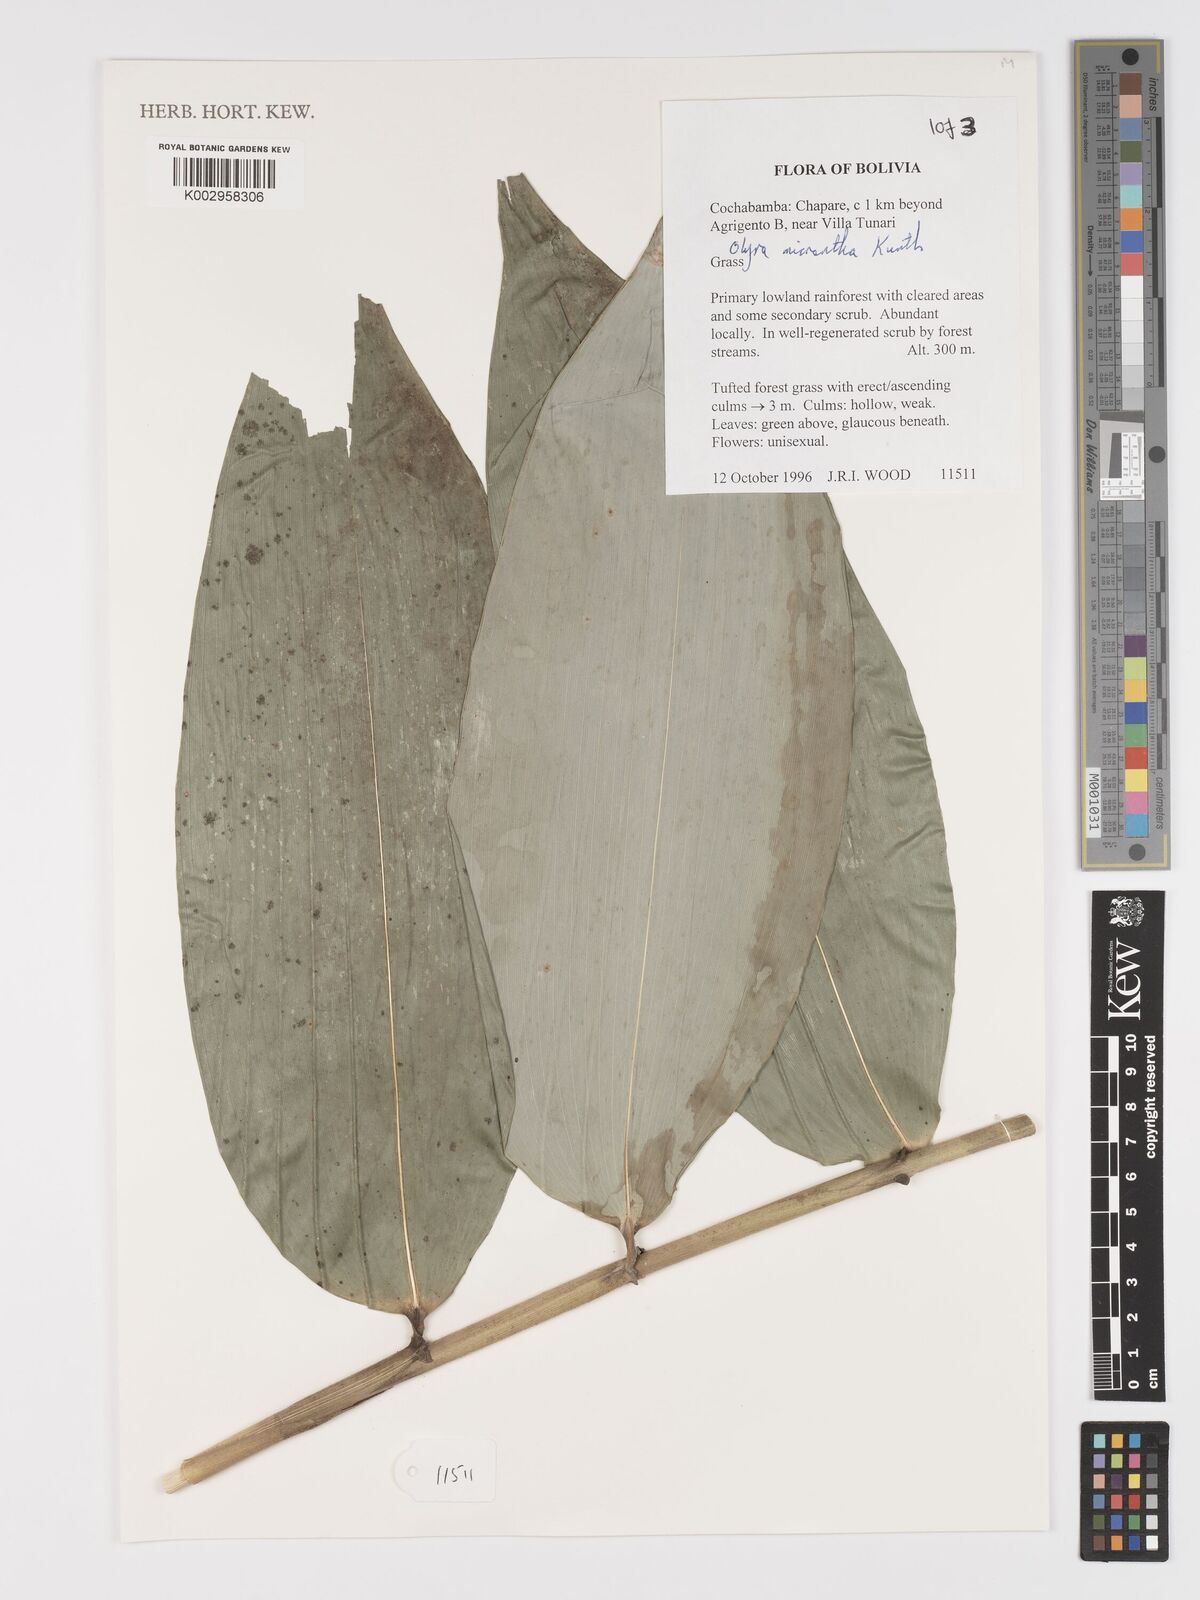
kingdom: Plantae
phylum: Tracheophyta
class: Liliopsida
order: Poales
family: Poaceae
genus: Taquara
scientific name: Taquara micrantha
